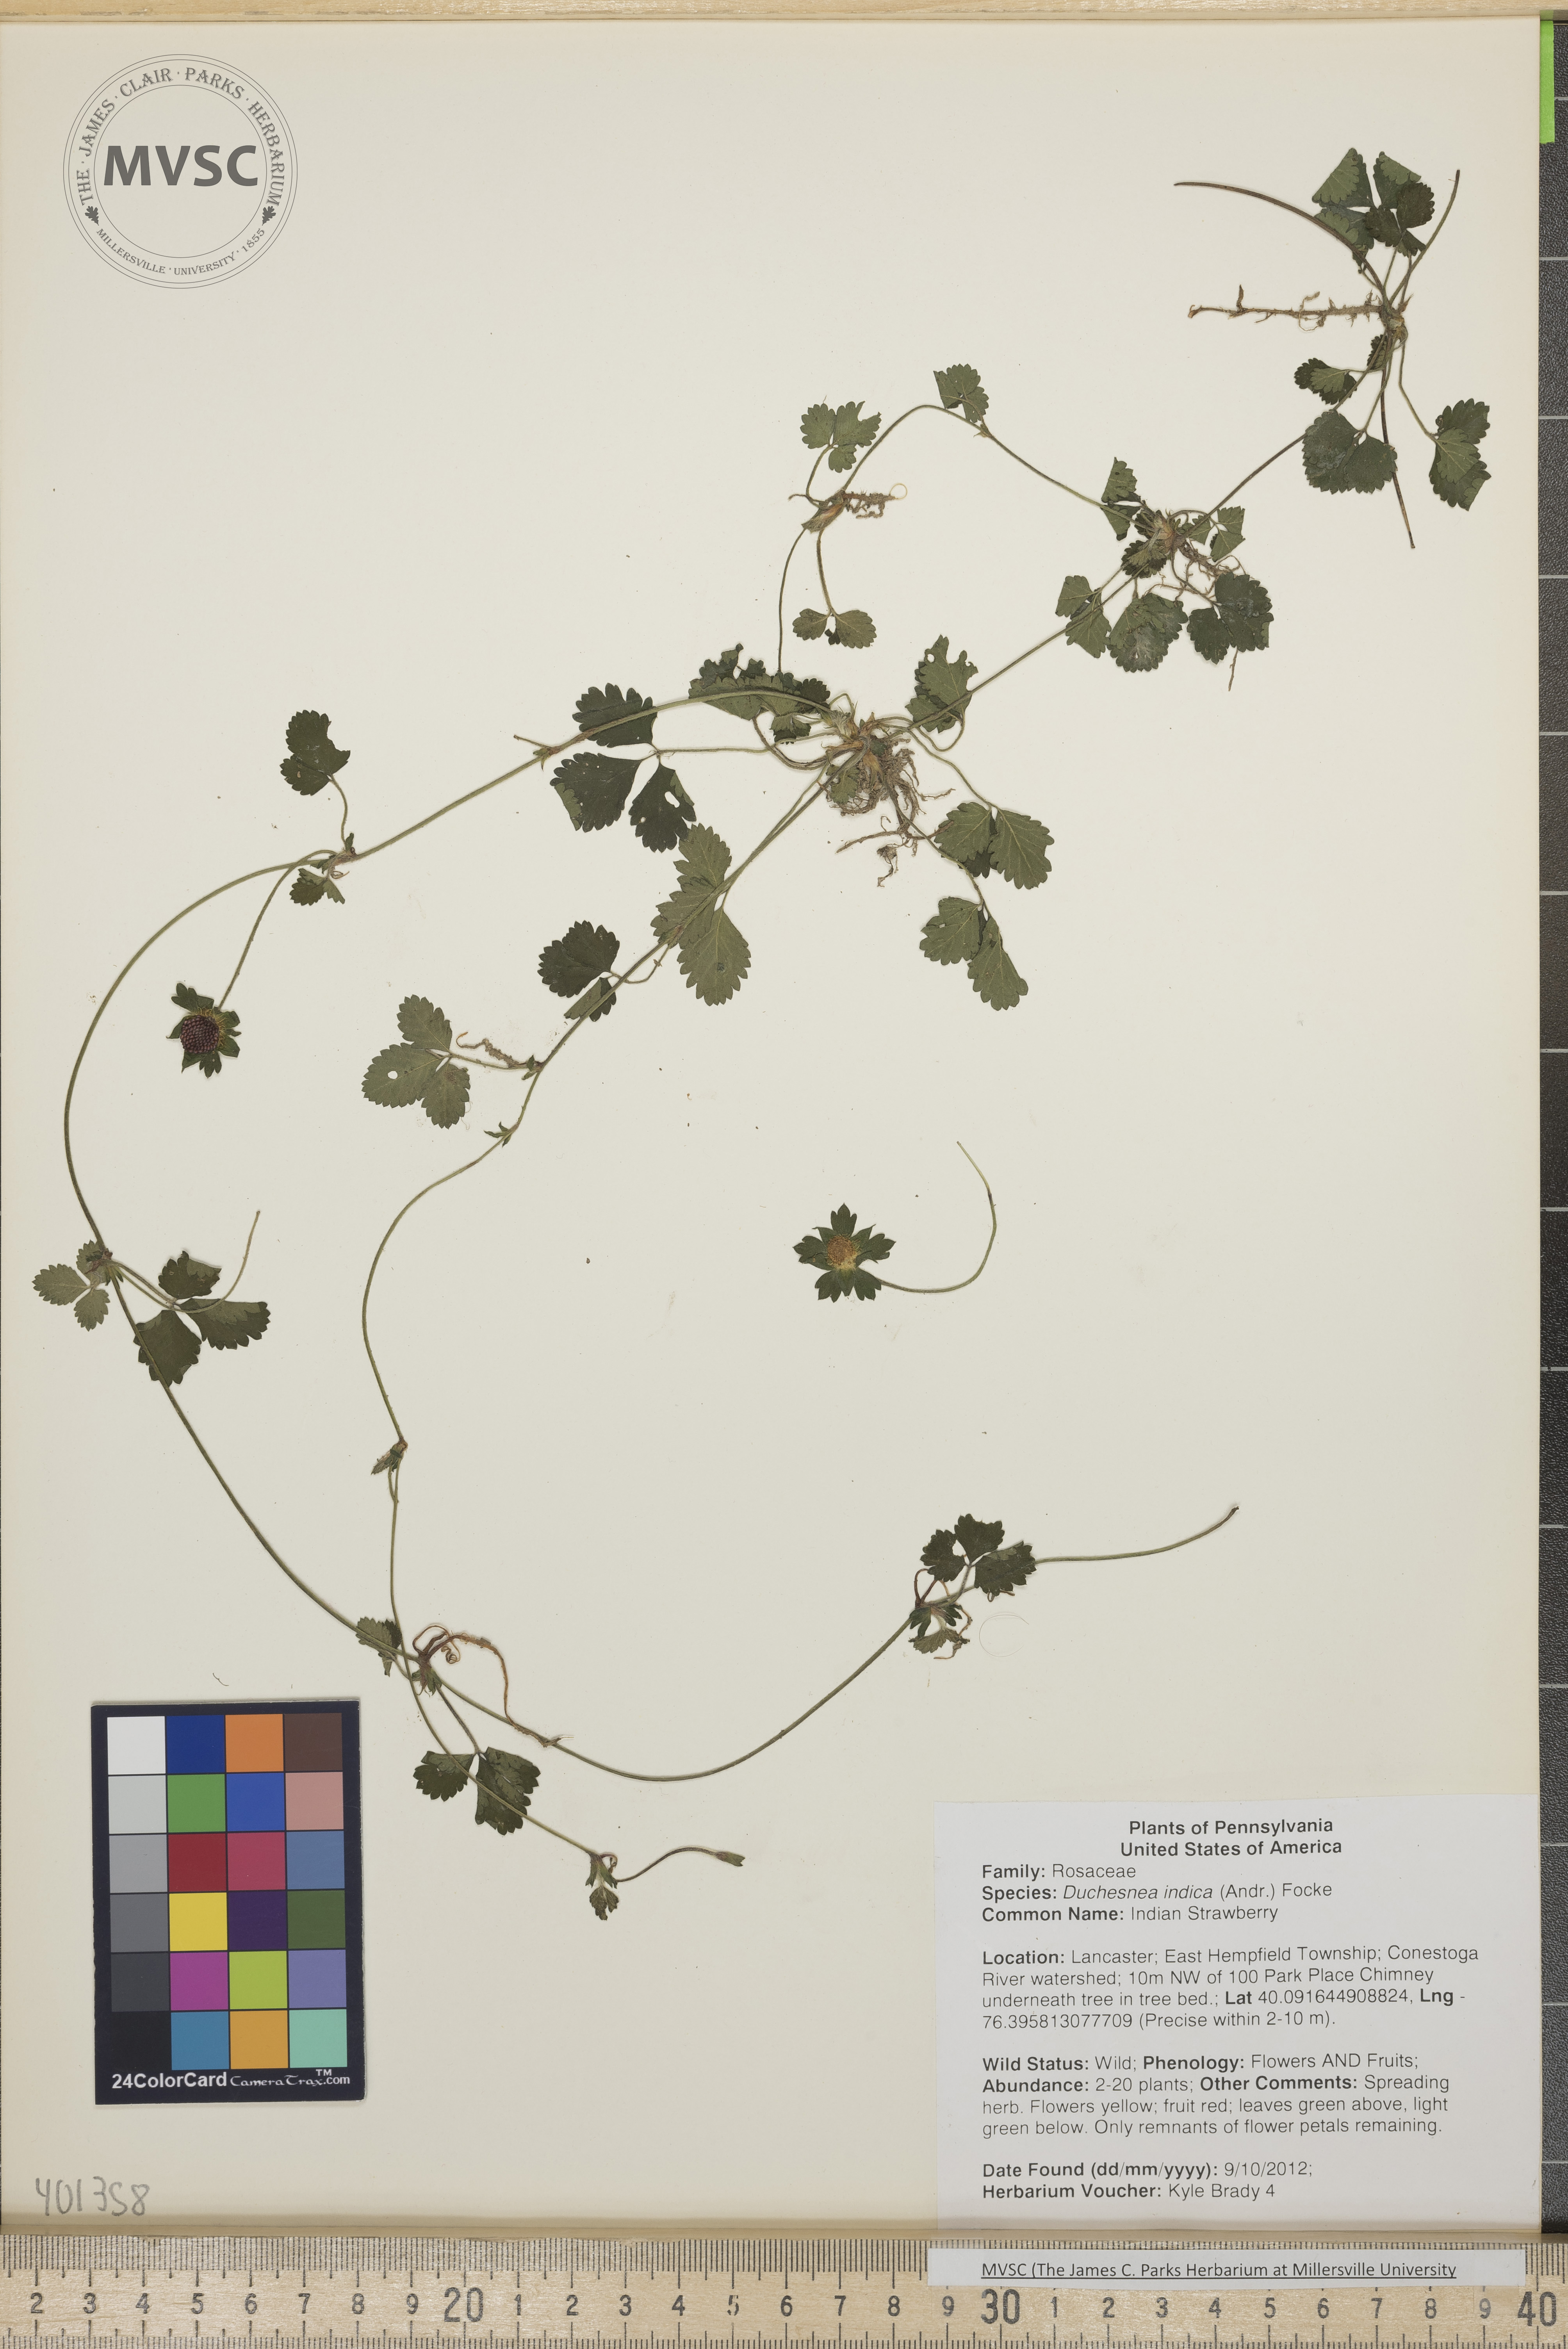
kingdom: Plantae
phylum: Tracheophyta
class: Magnoliopsida
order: Rosales
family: Rosaceae
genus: Potentilla
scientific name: Potentilla indica
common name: Indian Strawberry
